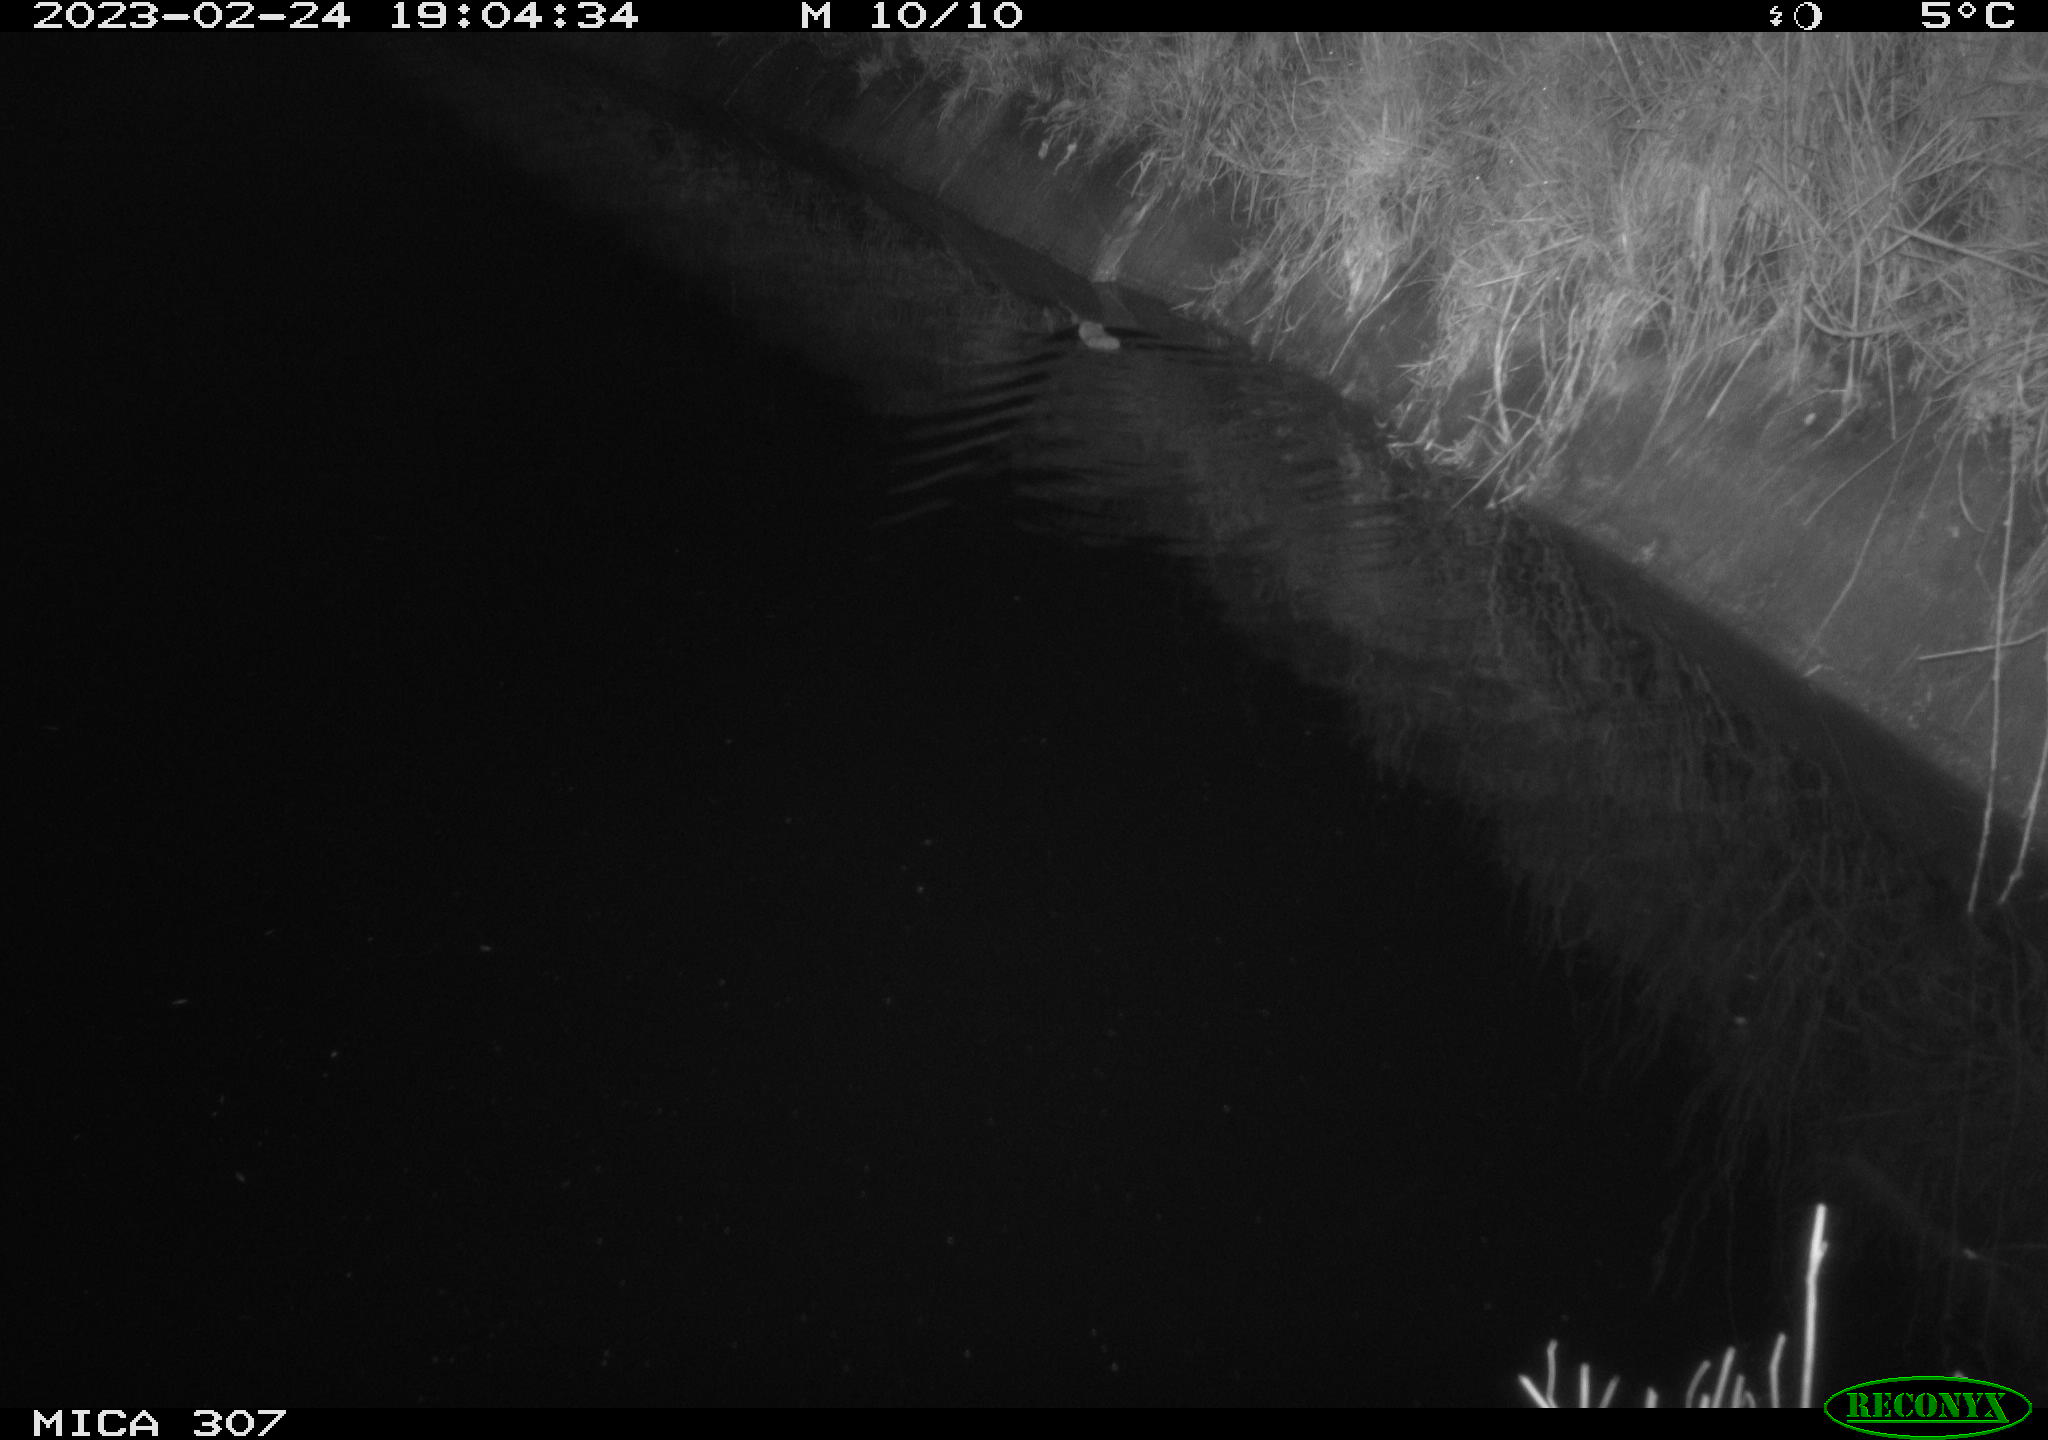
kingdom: Animalia
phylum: Chordata
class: Mammalia
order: Rodentia
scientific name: Rodentia
